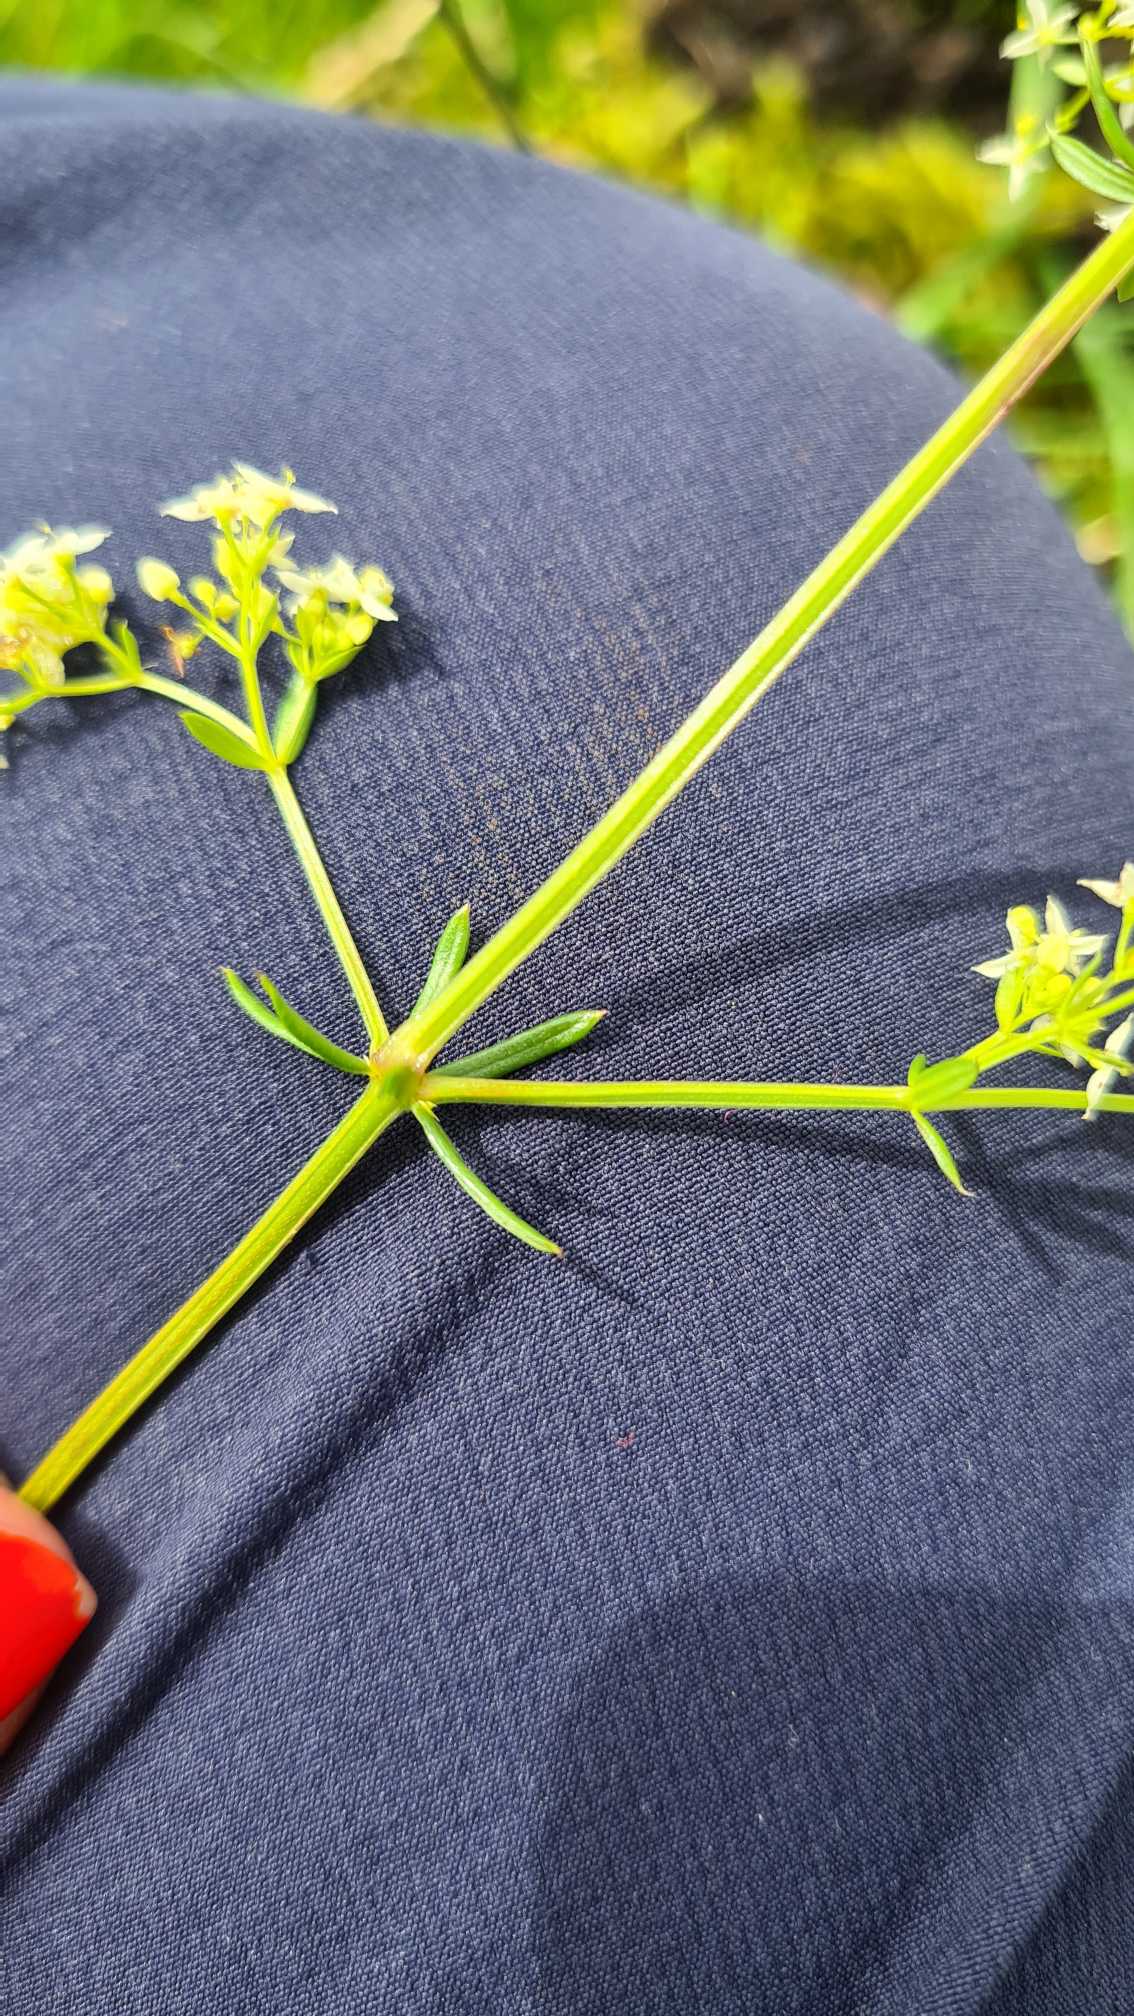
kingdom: Plantae
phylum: Tracheophyta
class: Magnoliopsida
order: Gentianales
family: Rubiaceae
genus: Galium
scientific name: Galium mollugo
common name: Hvid snerre
